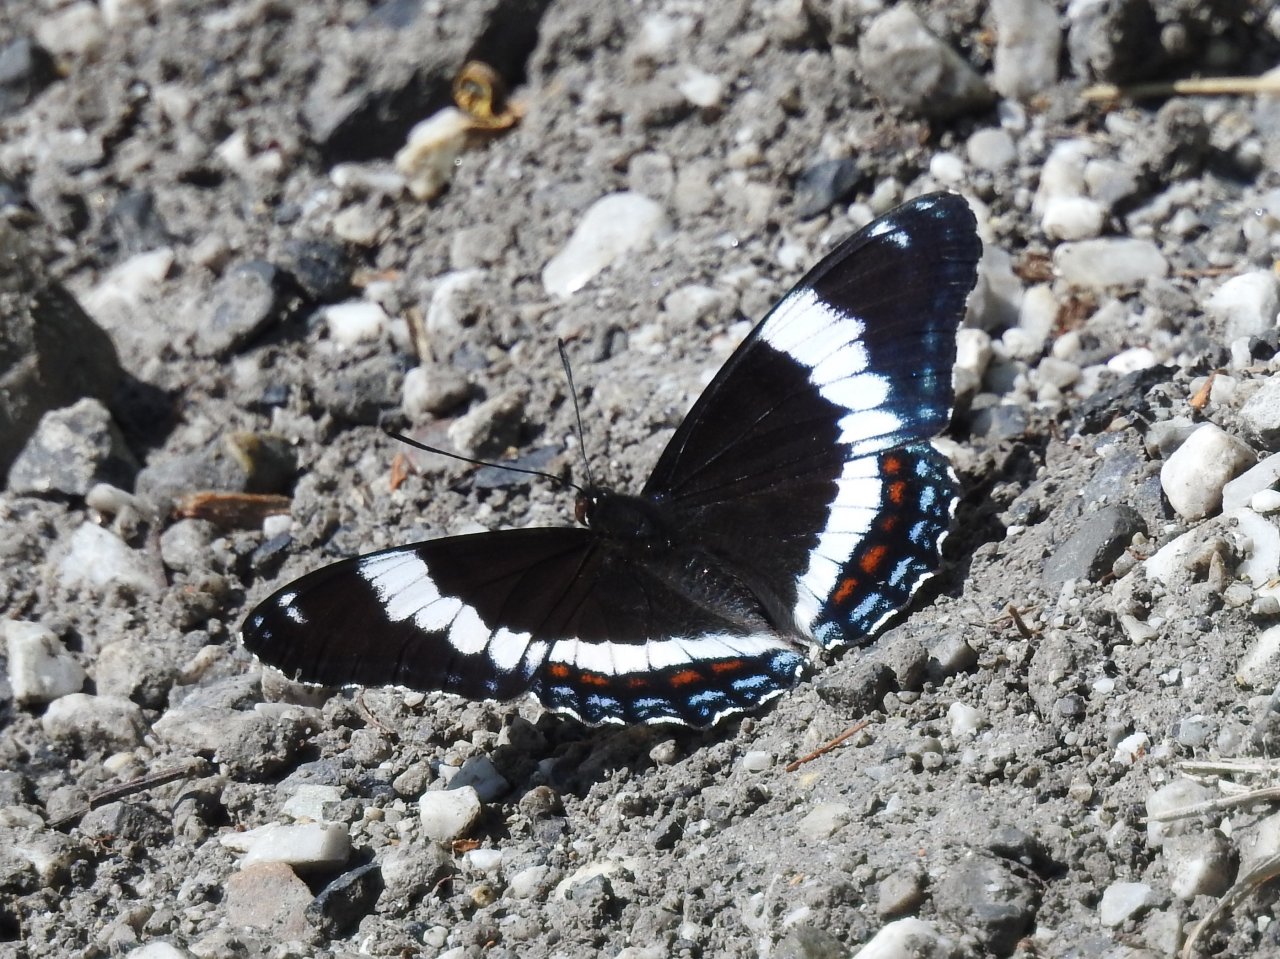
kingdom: Animalia
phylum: Arthropoda
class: Insecta
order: Lepidoptera
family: Nymphalidae
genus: Limenitis
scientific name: Limenitis arthemis
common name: Red-spotted Admiral
